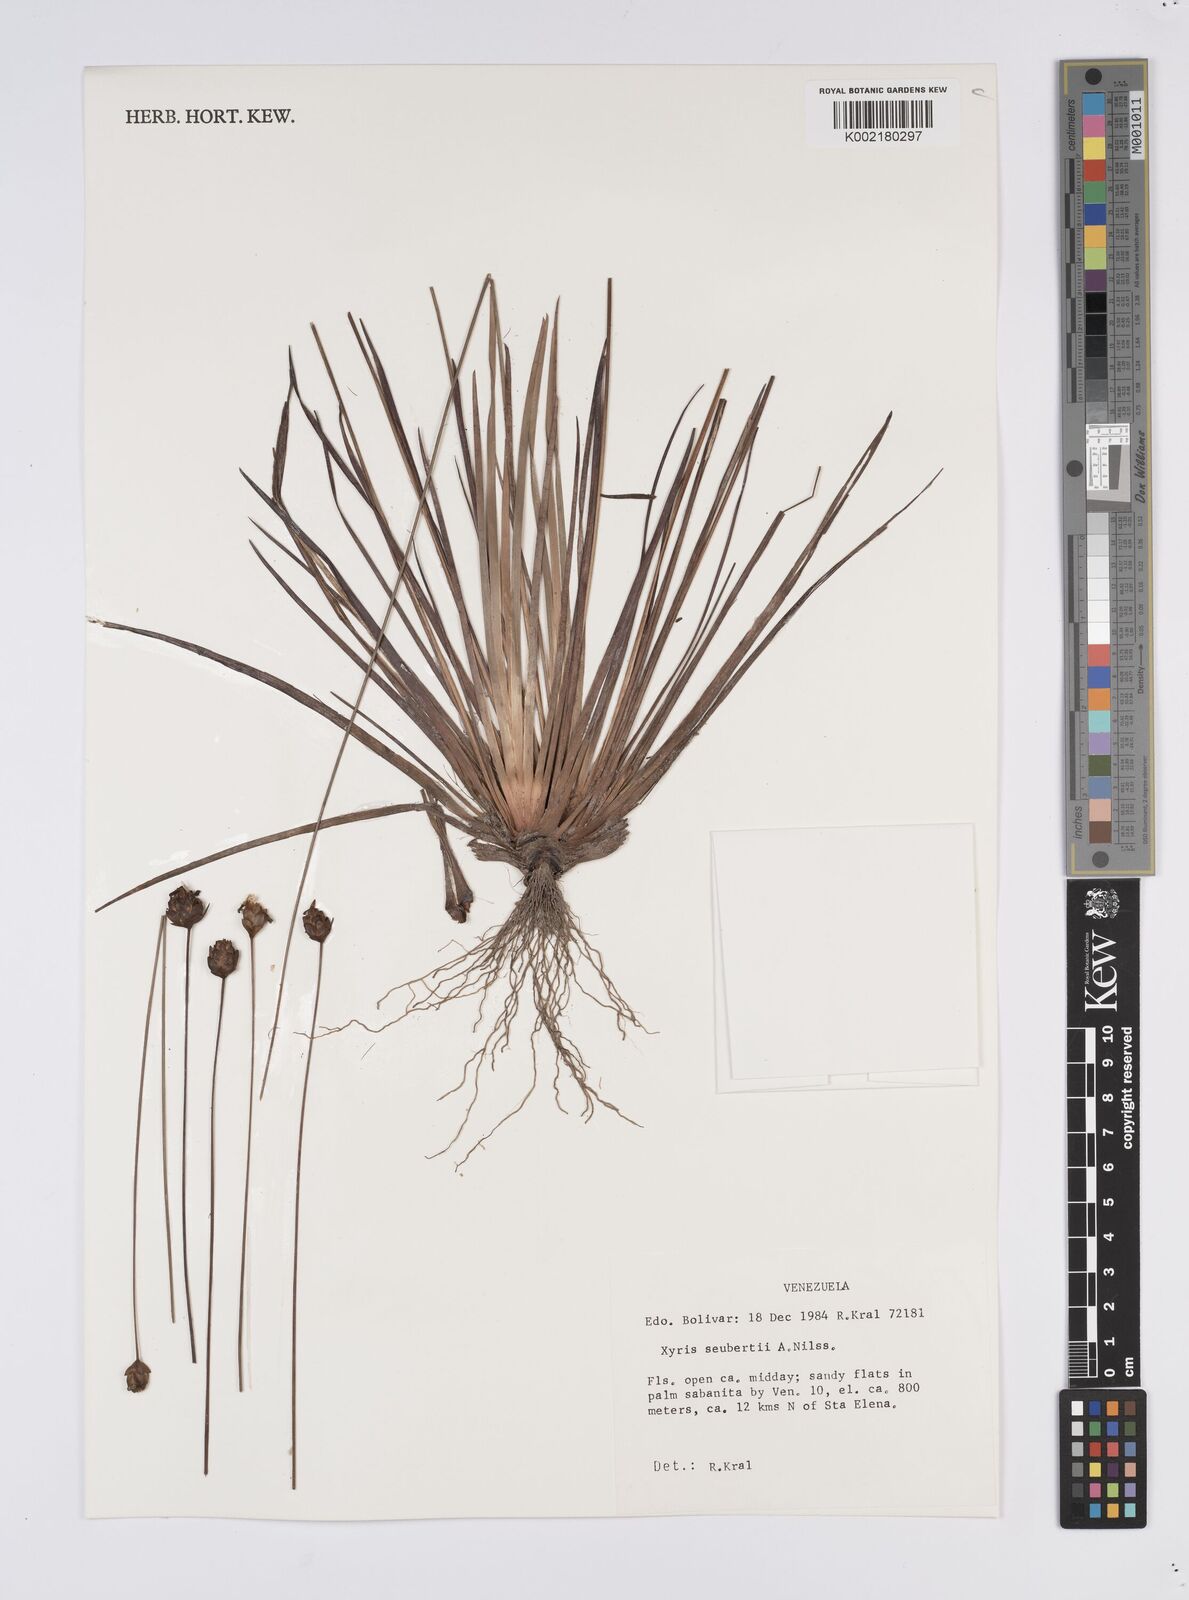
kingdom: Plantae
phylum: Tracheophyta
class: Liliopsida
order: Poales
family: Xyridaceae
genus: Xyris
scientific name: Xyris seubertii
